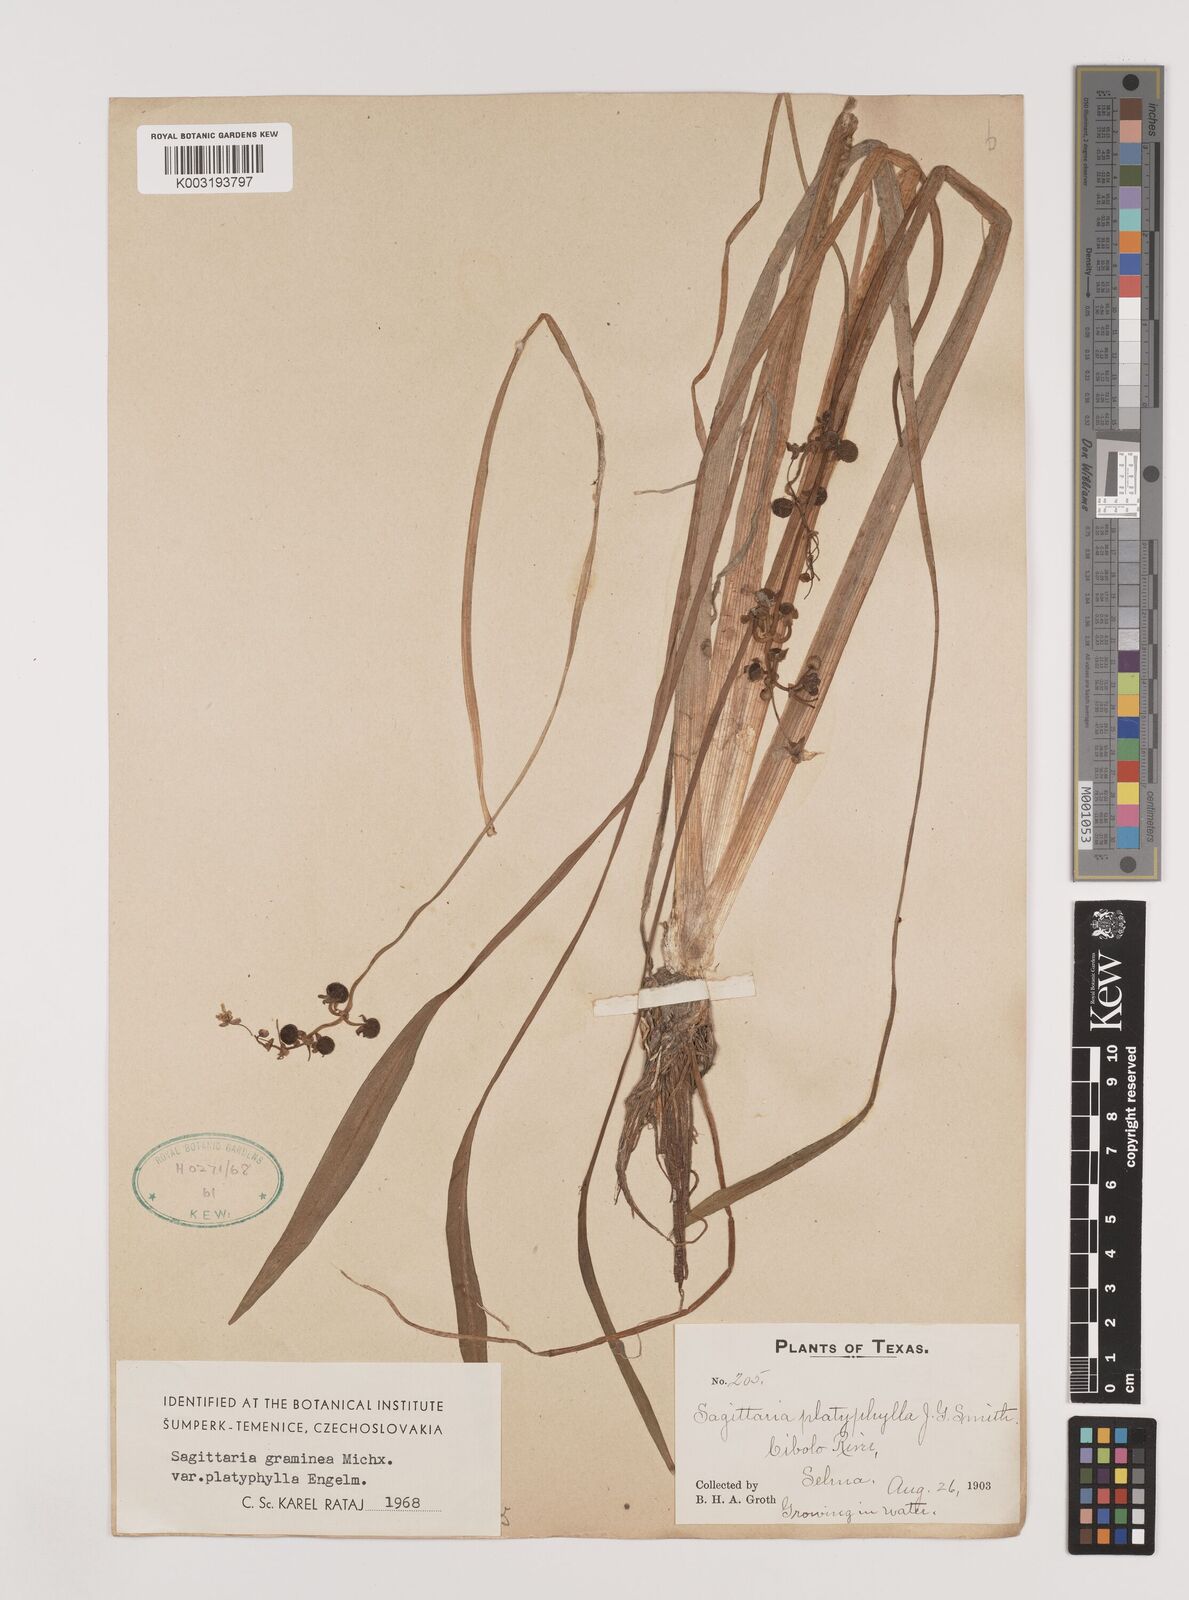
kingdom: Plantae
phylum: Tracheophyta
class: Liliopsida
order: Alismatales
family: Alismataceae
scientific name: Alismataceae
